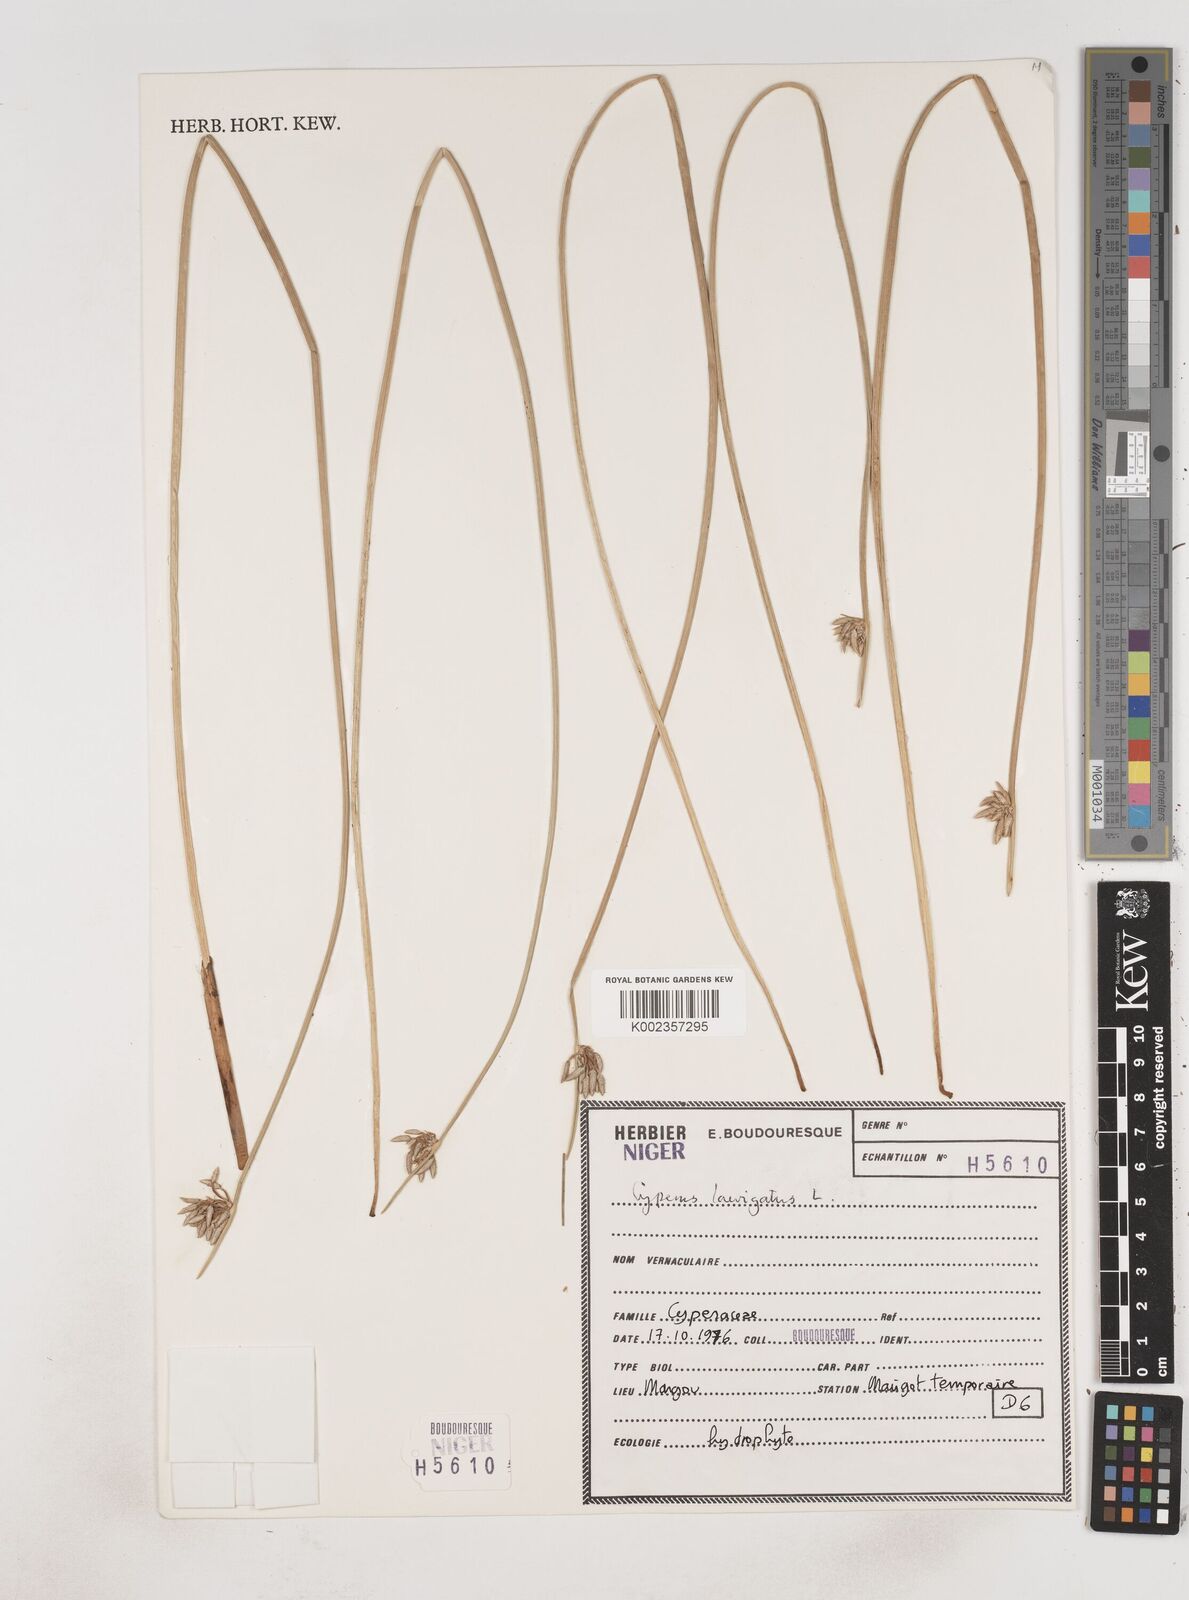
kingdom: Plantae
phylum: Tracheophyta
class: Liliopsida
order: Poales
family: Cyperaceae
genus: Cyperus
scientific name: Cyperus laevigatus
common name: Smooth flat sedge
